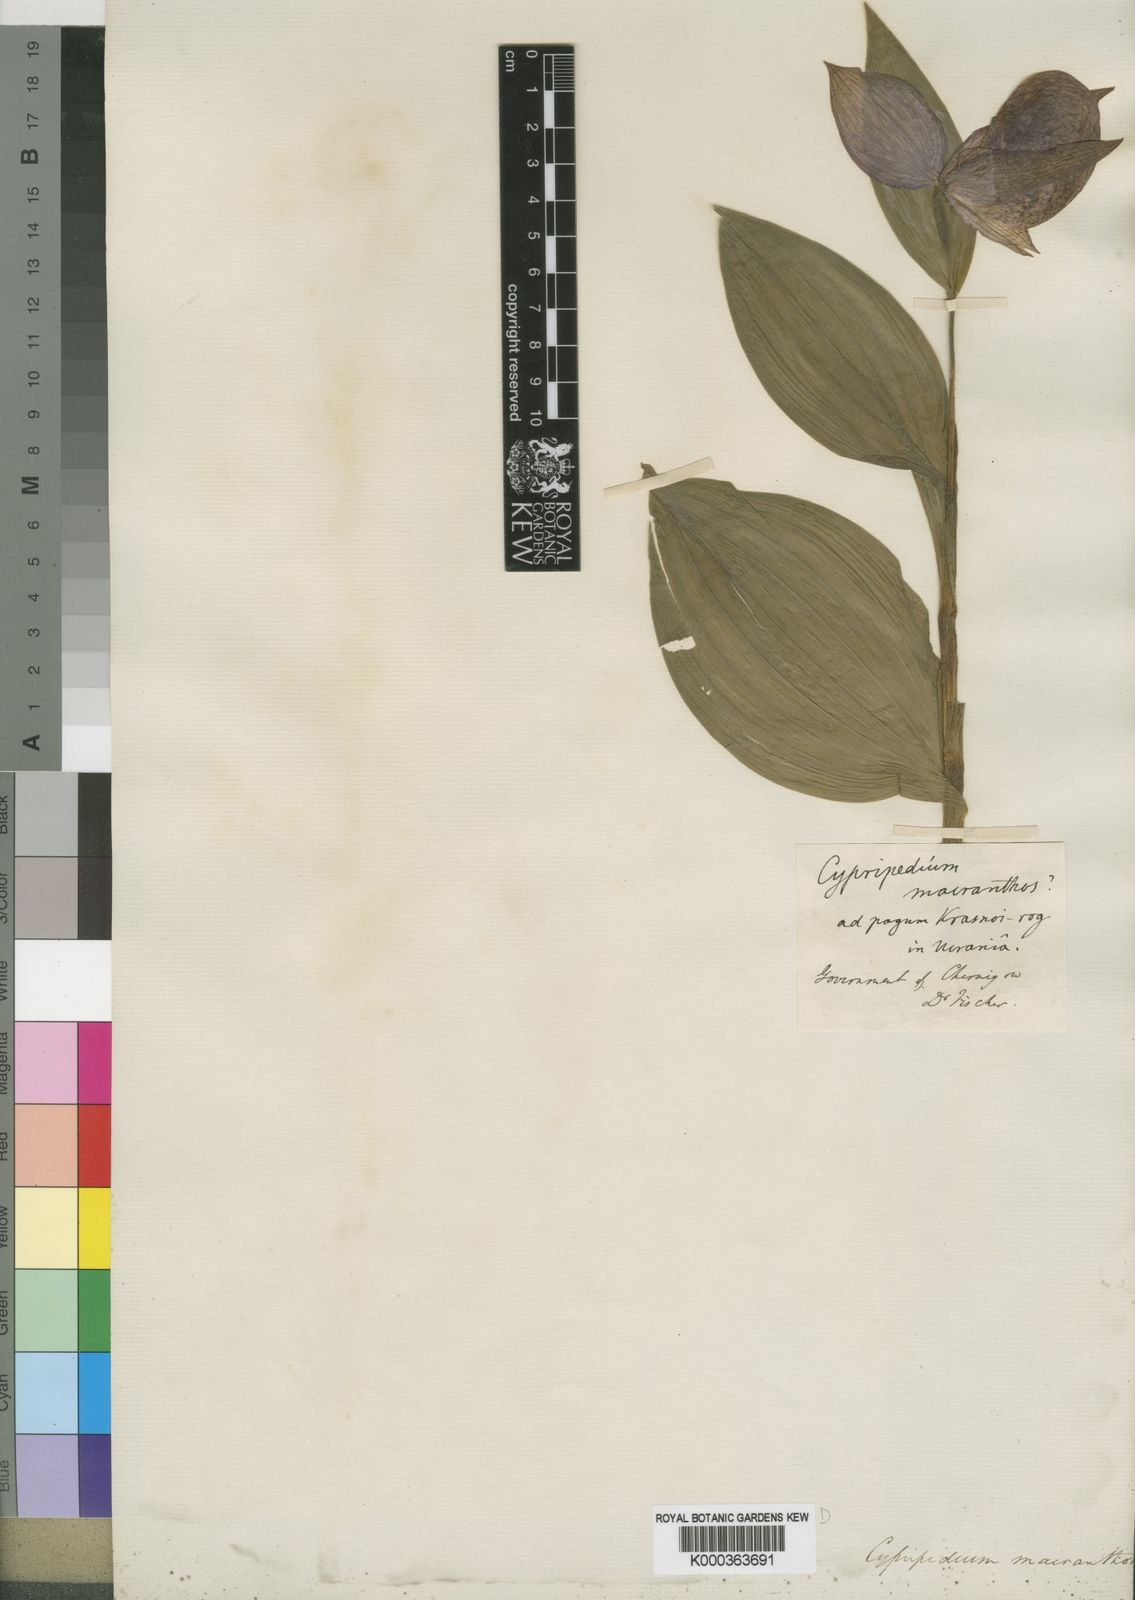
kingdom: Plantae
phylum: Tracheophyta
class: Liliopsida
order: Asparagales
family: Orchidaceae
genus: Cypripedium
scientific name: Cypripedium macranthos
